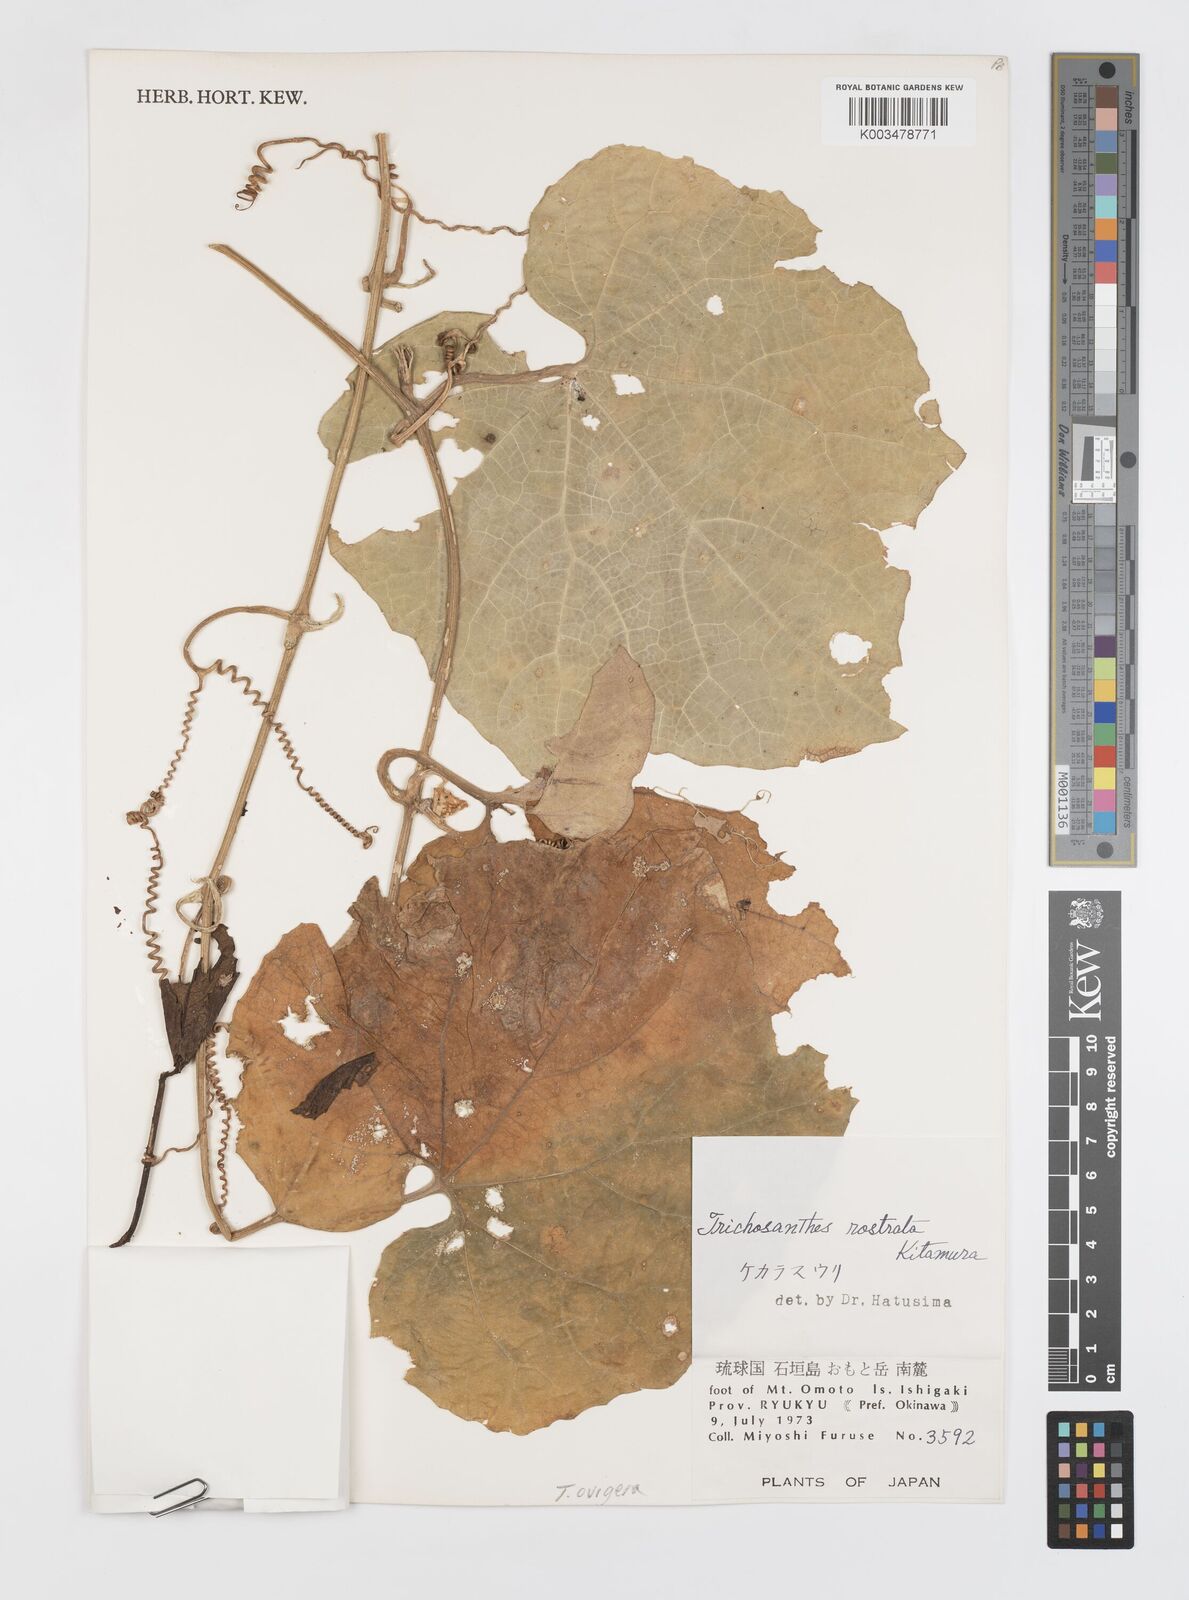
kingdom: Plantae
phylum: Tracheophyta
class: Magnoliopsida
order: Cucurbitales
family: Cucurbitaceae
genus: Trichosanthes
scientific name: Trichosanthes ovigera
